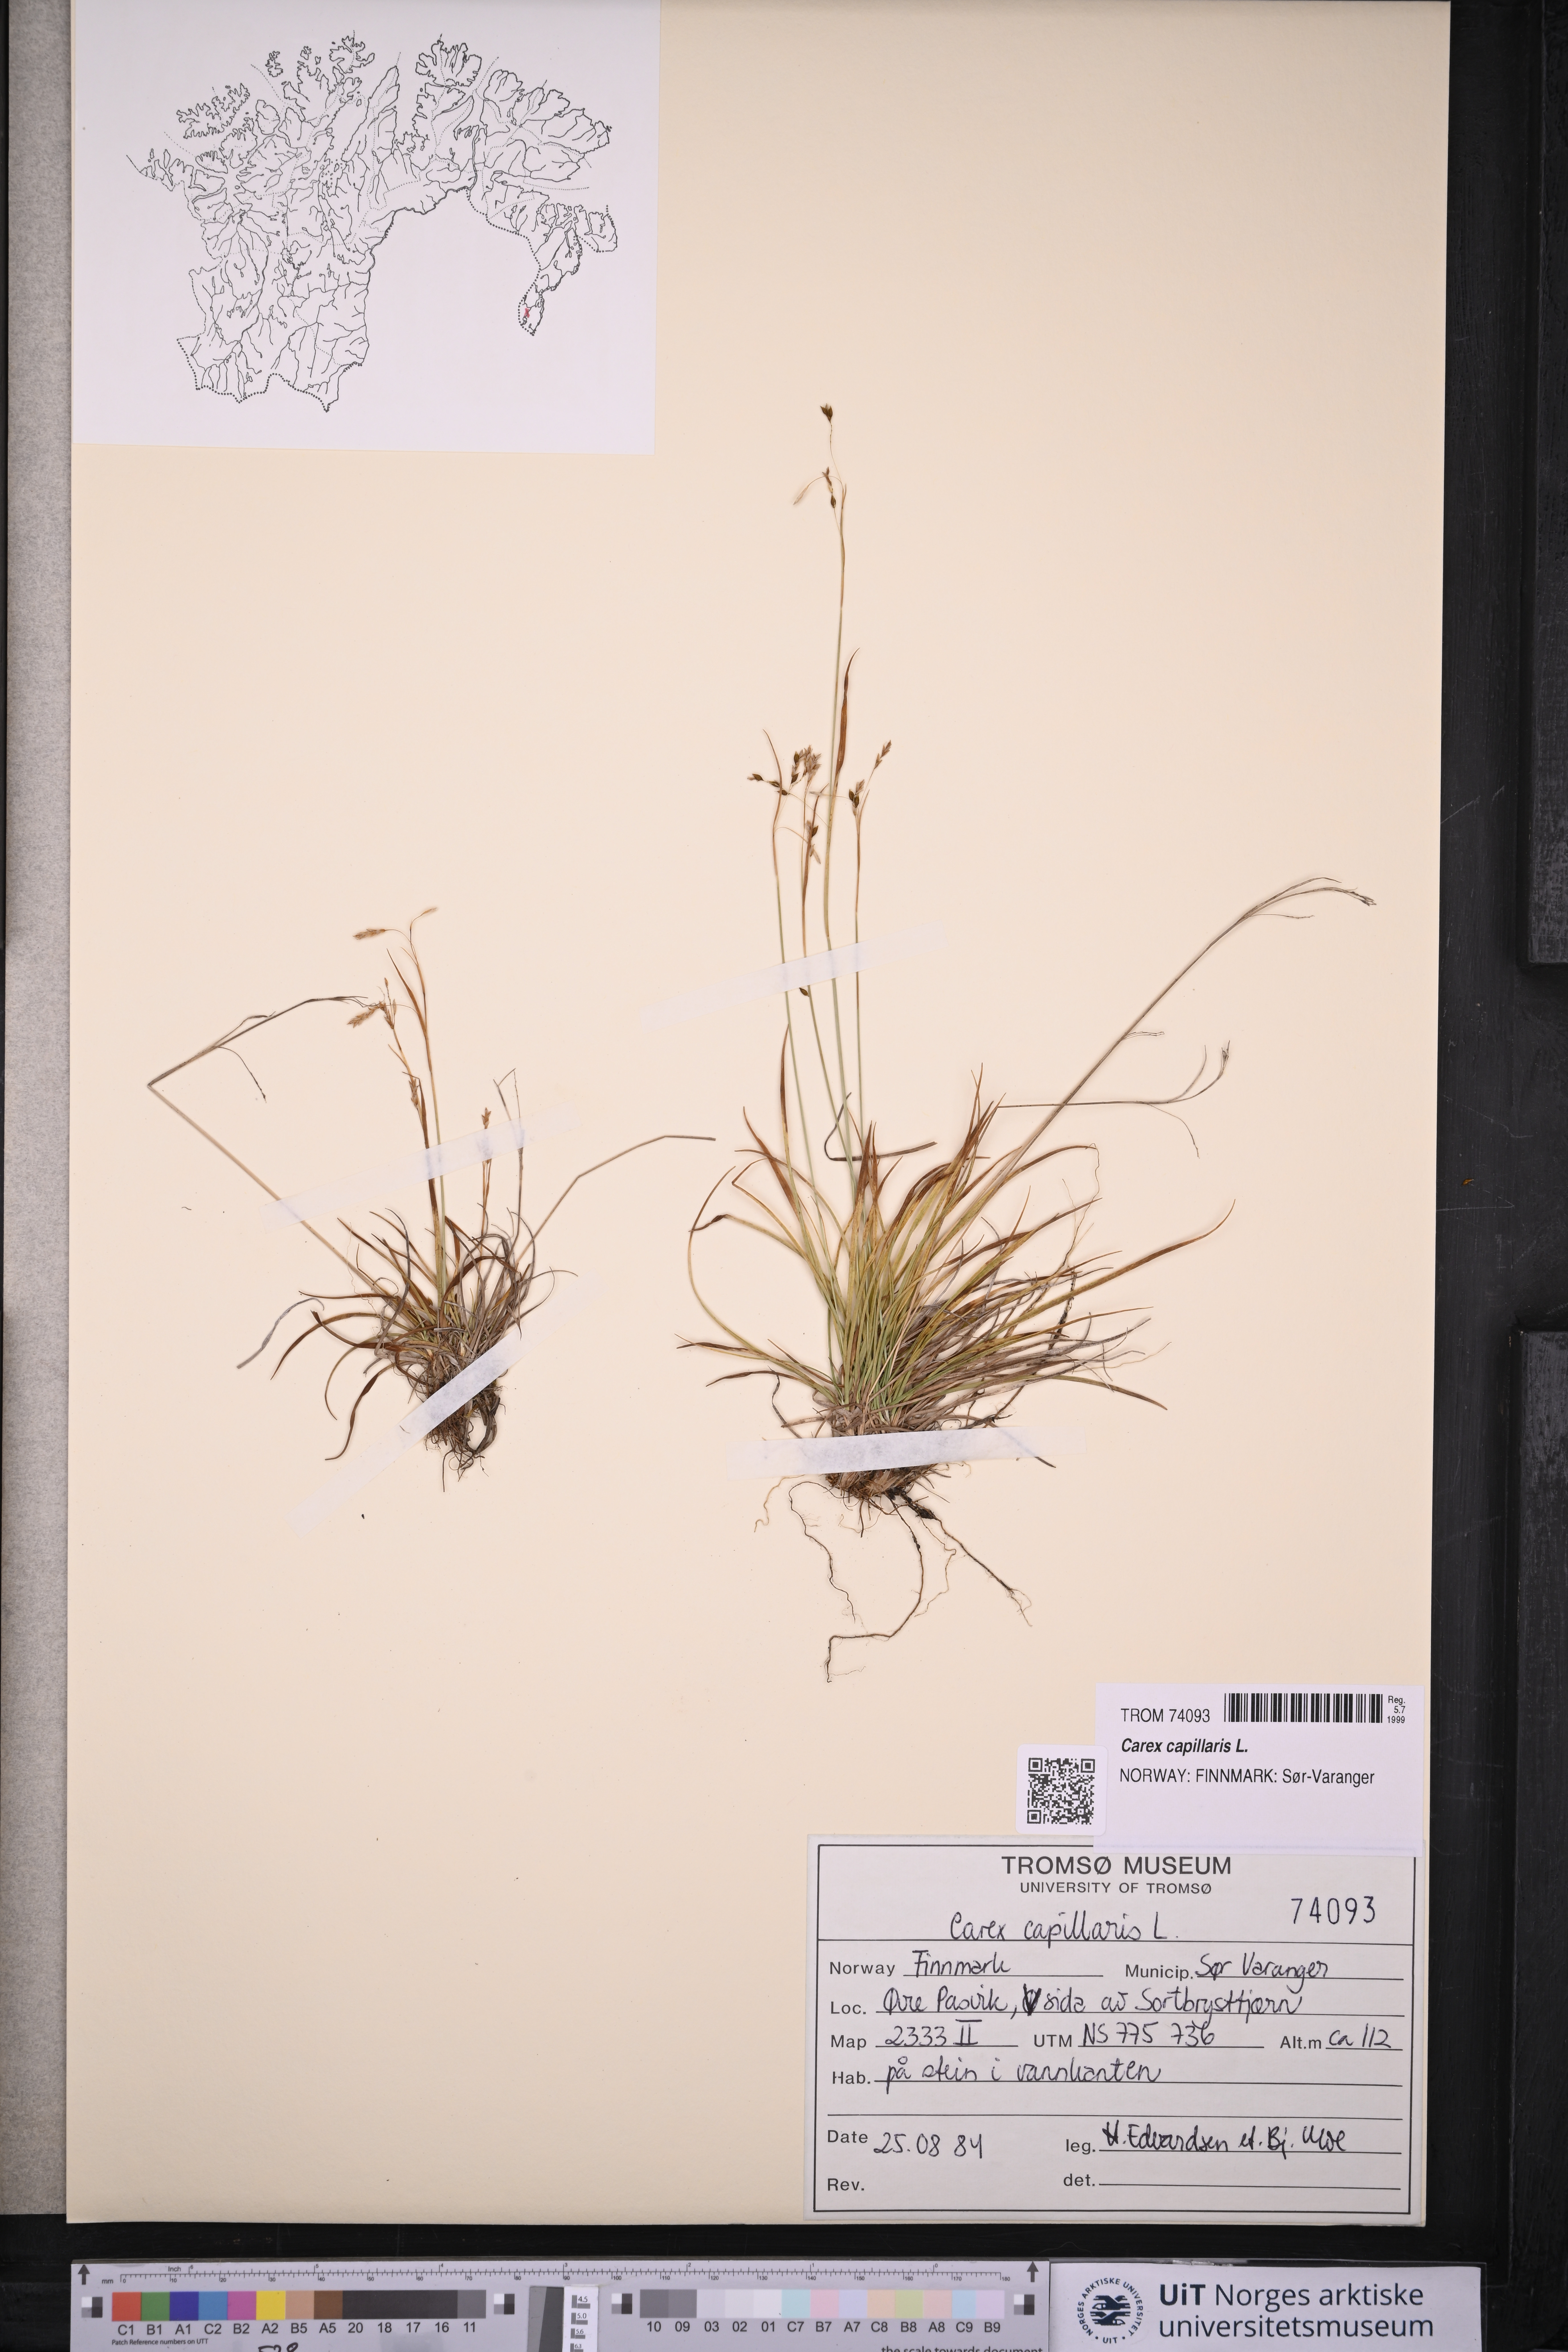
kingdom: Plantae
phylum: Tracheophyta
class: Liliopsida
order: Poales
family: Cyperaceae
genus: Carex
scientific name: Carex capillaris
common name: Hair sedge
